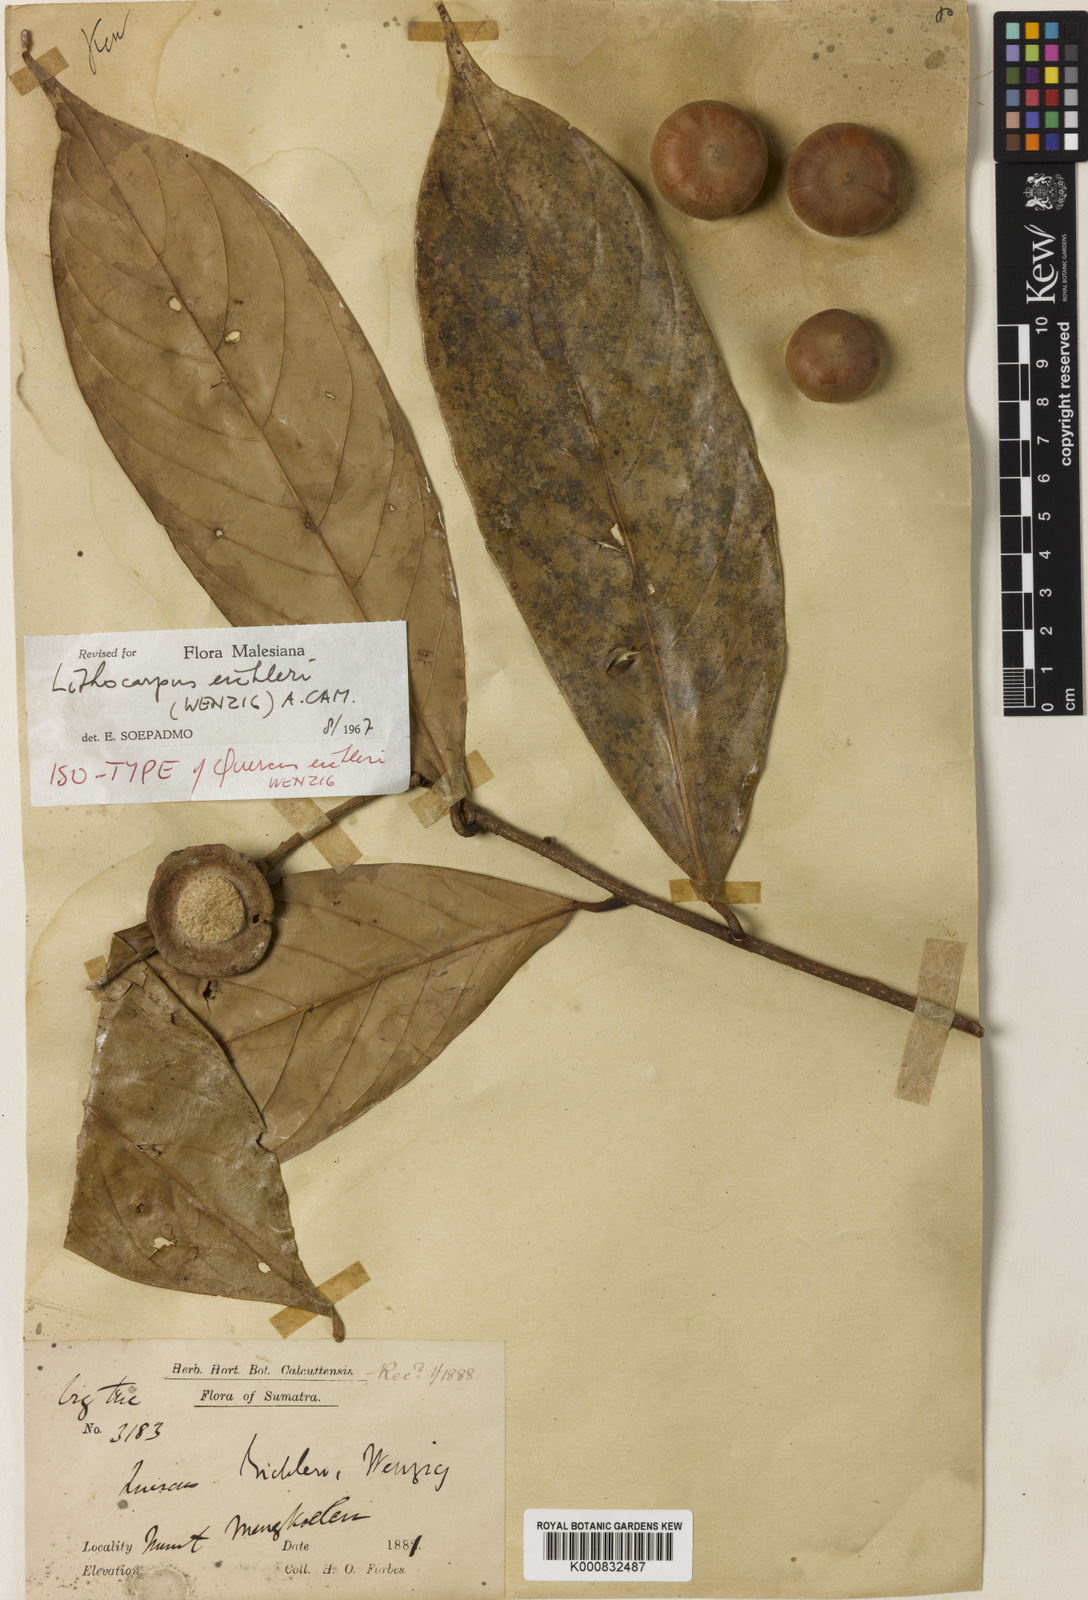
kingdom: Plantae
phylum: Tracheophyta
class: Magnoliopsida
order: Fagales
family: Fagaceae
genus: Lithocarpus
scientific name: Lithocarpus eichleri
